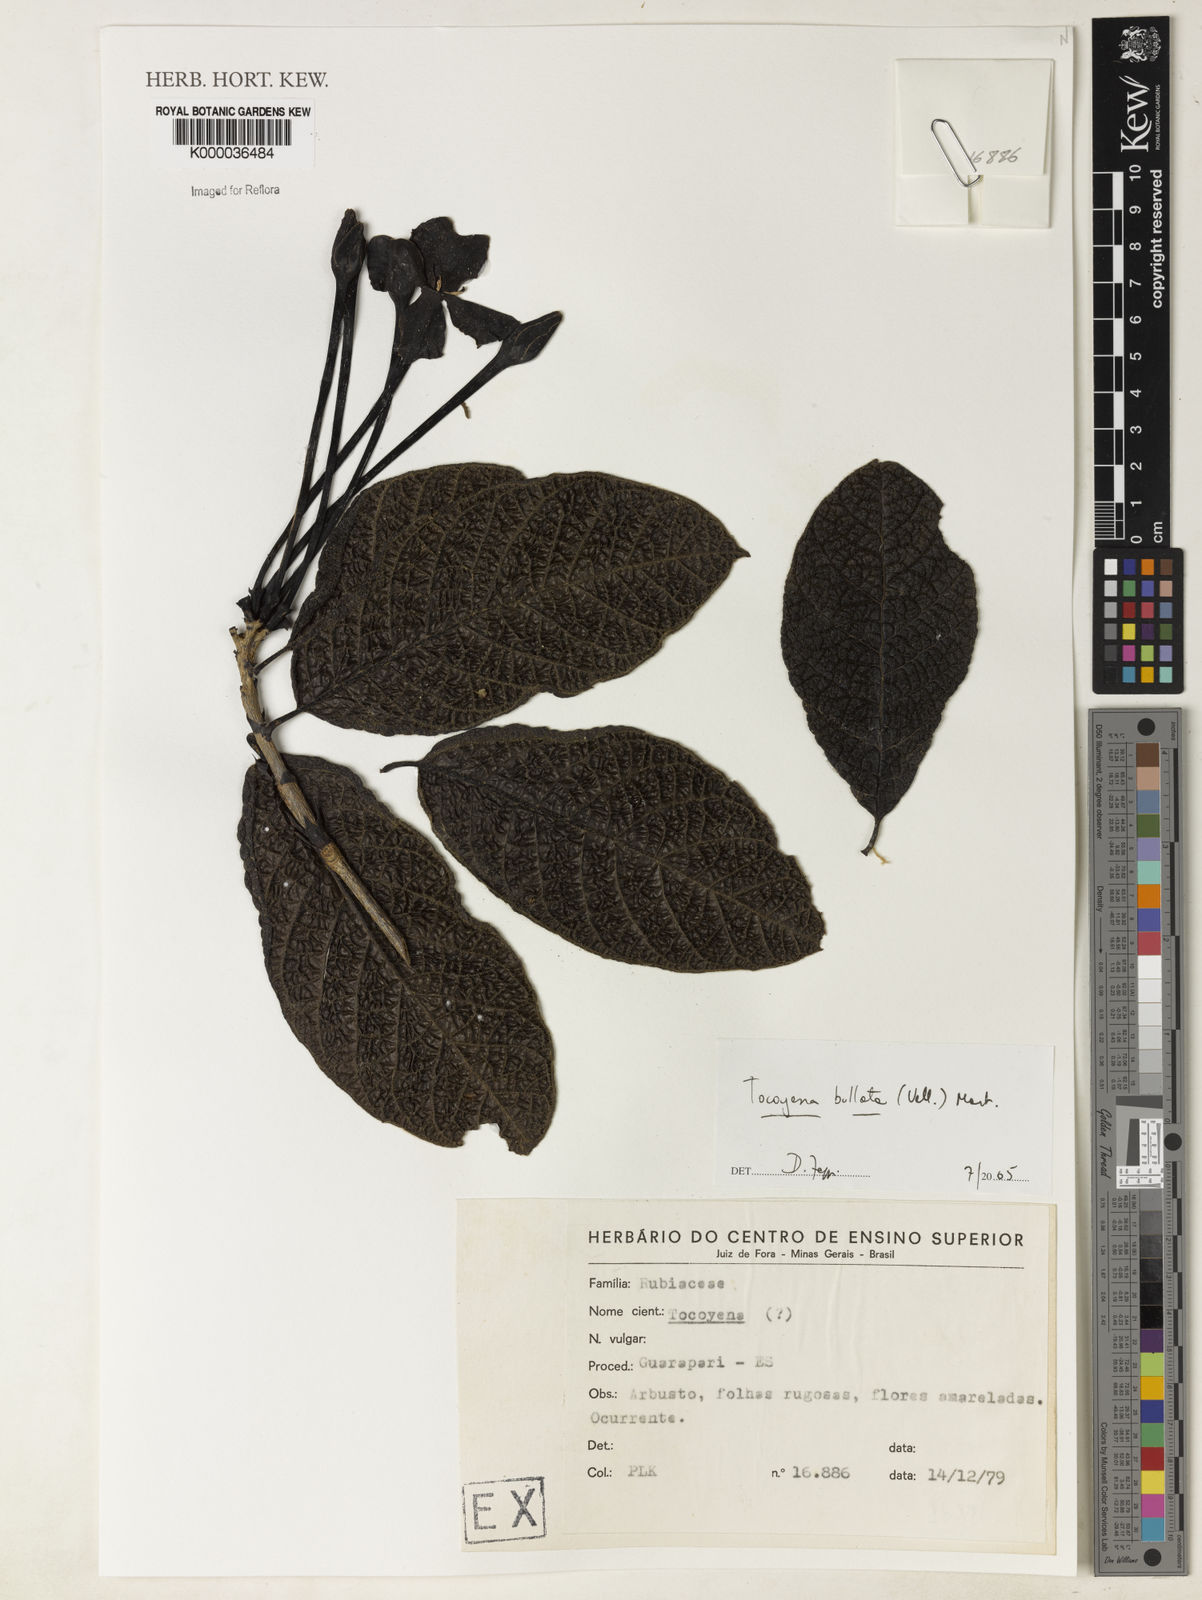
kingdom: Plantae
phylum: Tracheophyta
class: Magnoliopsida
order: Gentianales
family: Rubiaceae
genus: Tocoyena
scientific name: Tocoyena bullata
